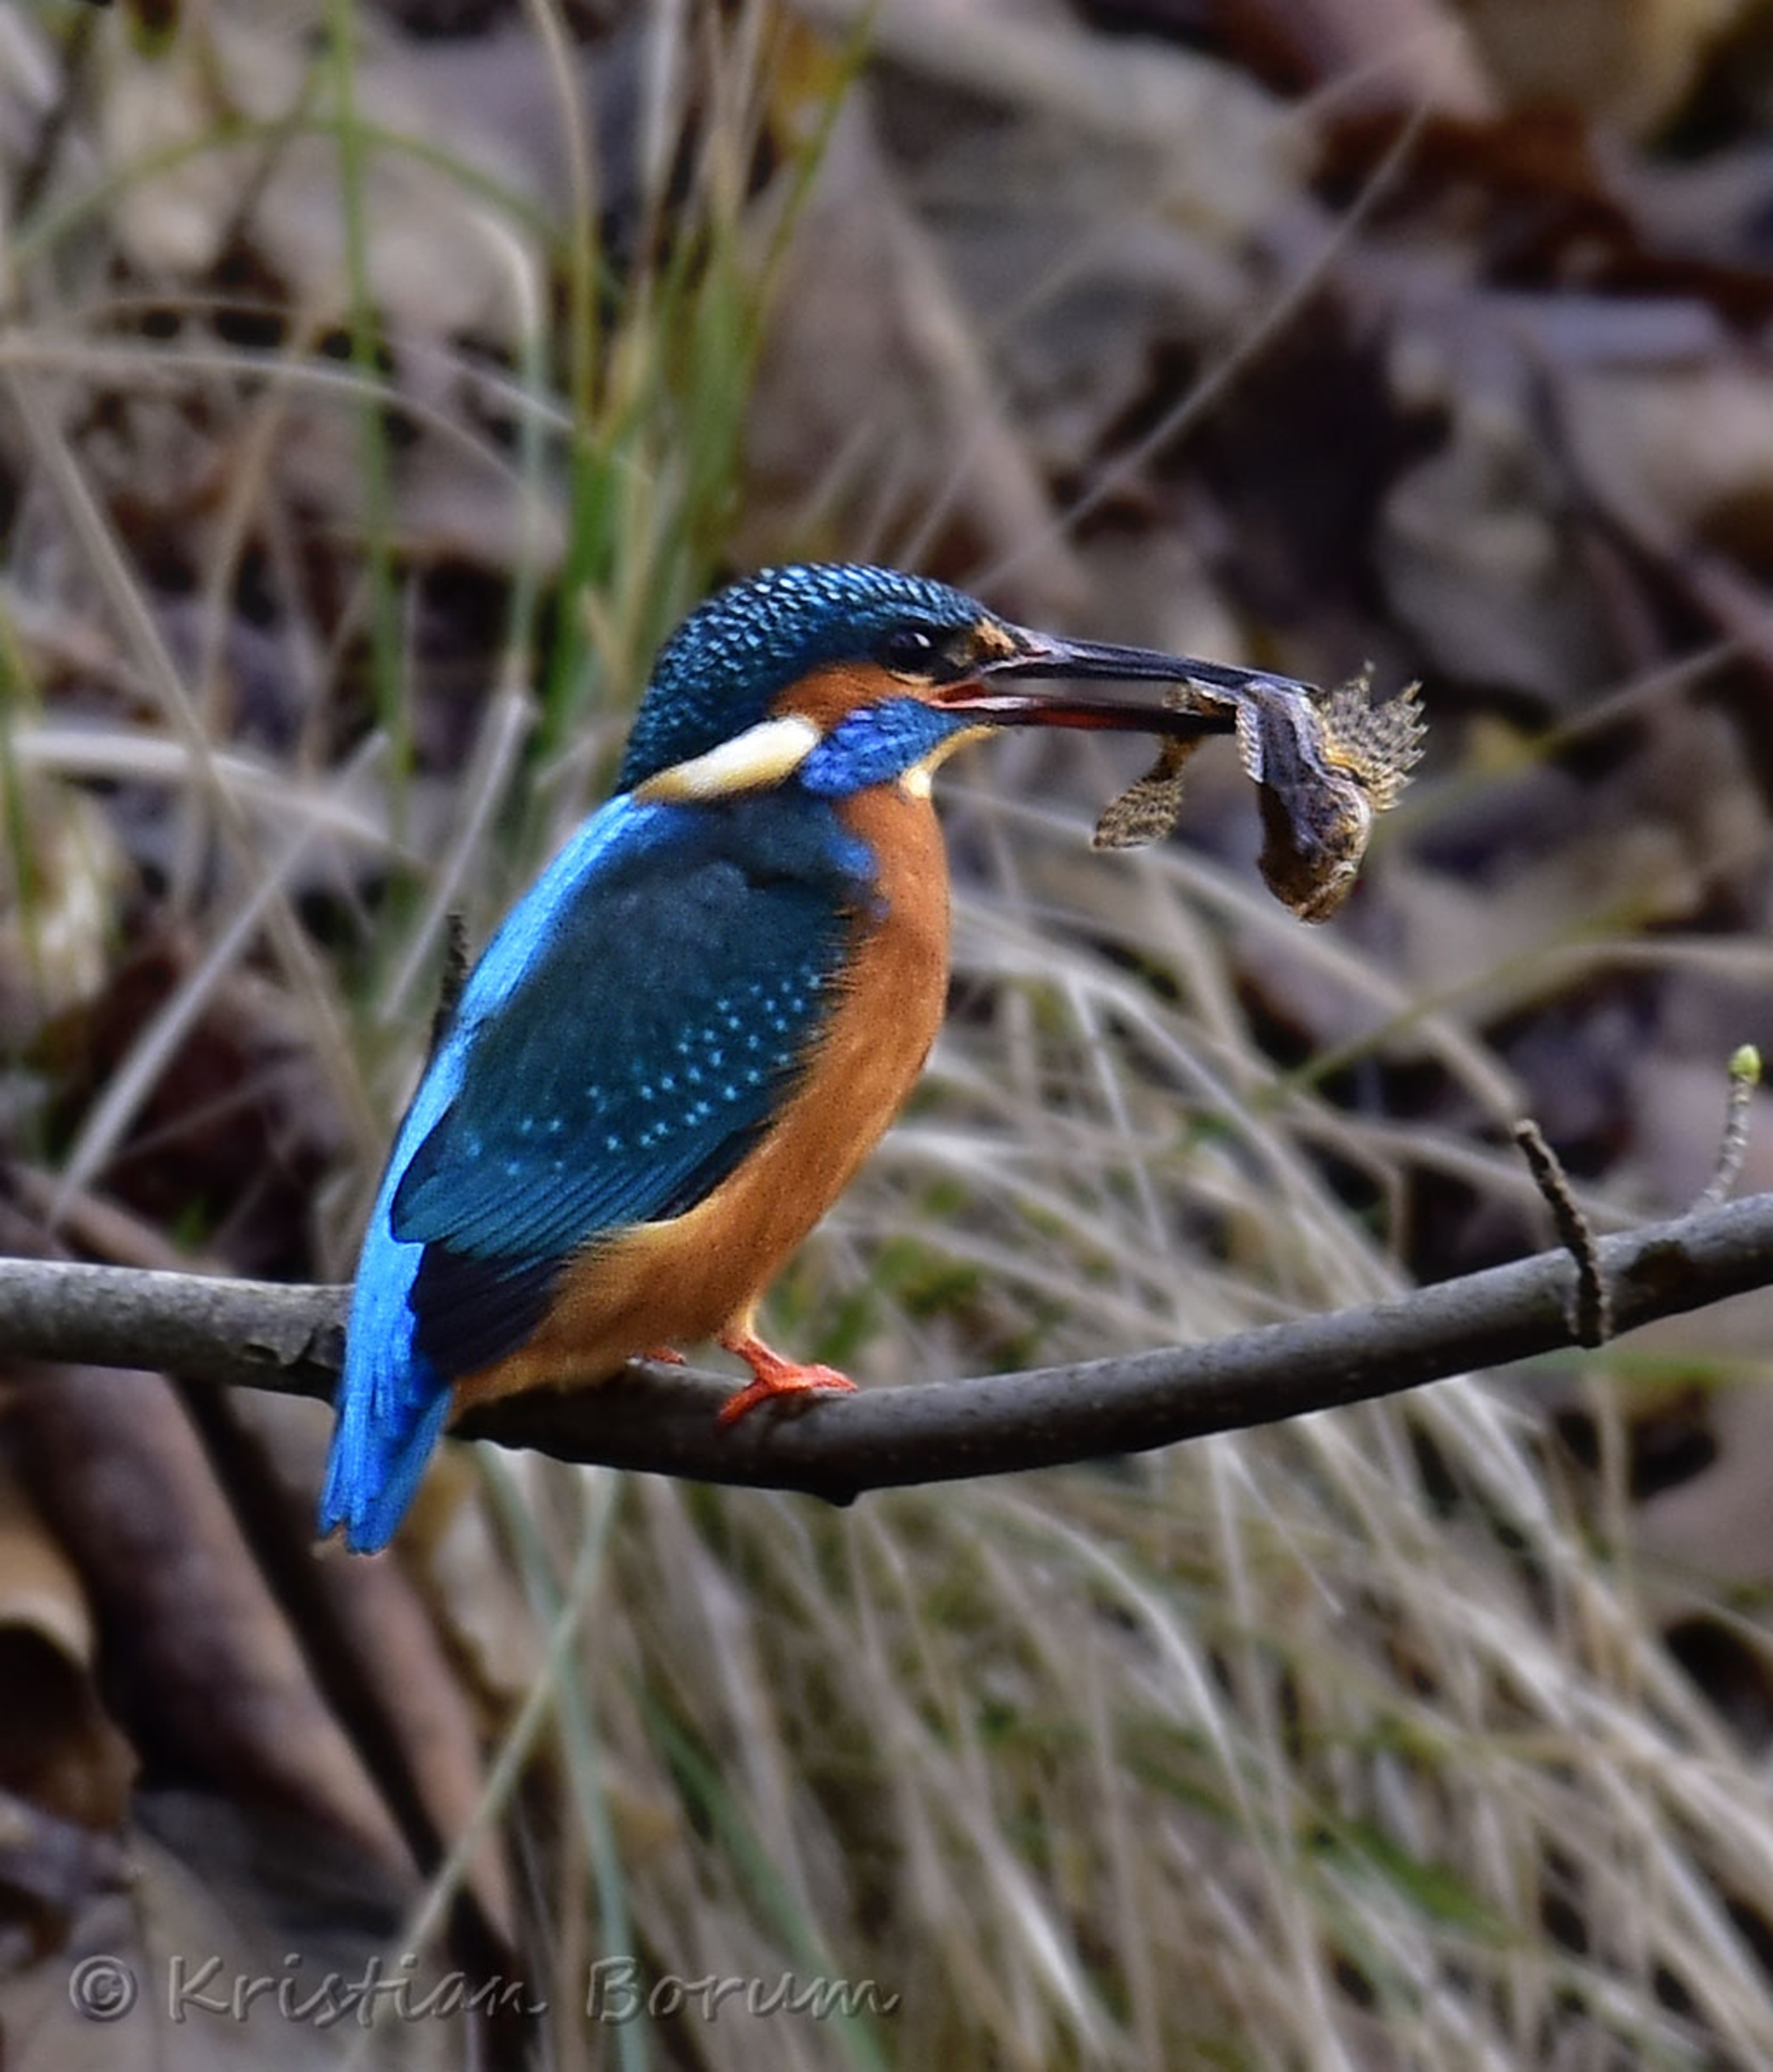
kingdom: Animalia
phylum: Chordata
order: Scorpaeniformes
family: Cottidae
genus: Cottus
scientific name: Cottus poecilopus
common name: Finnestribet ferskvandsulk
